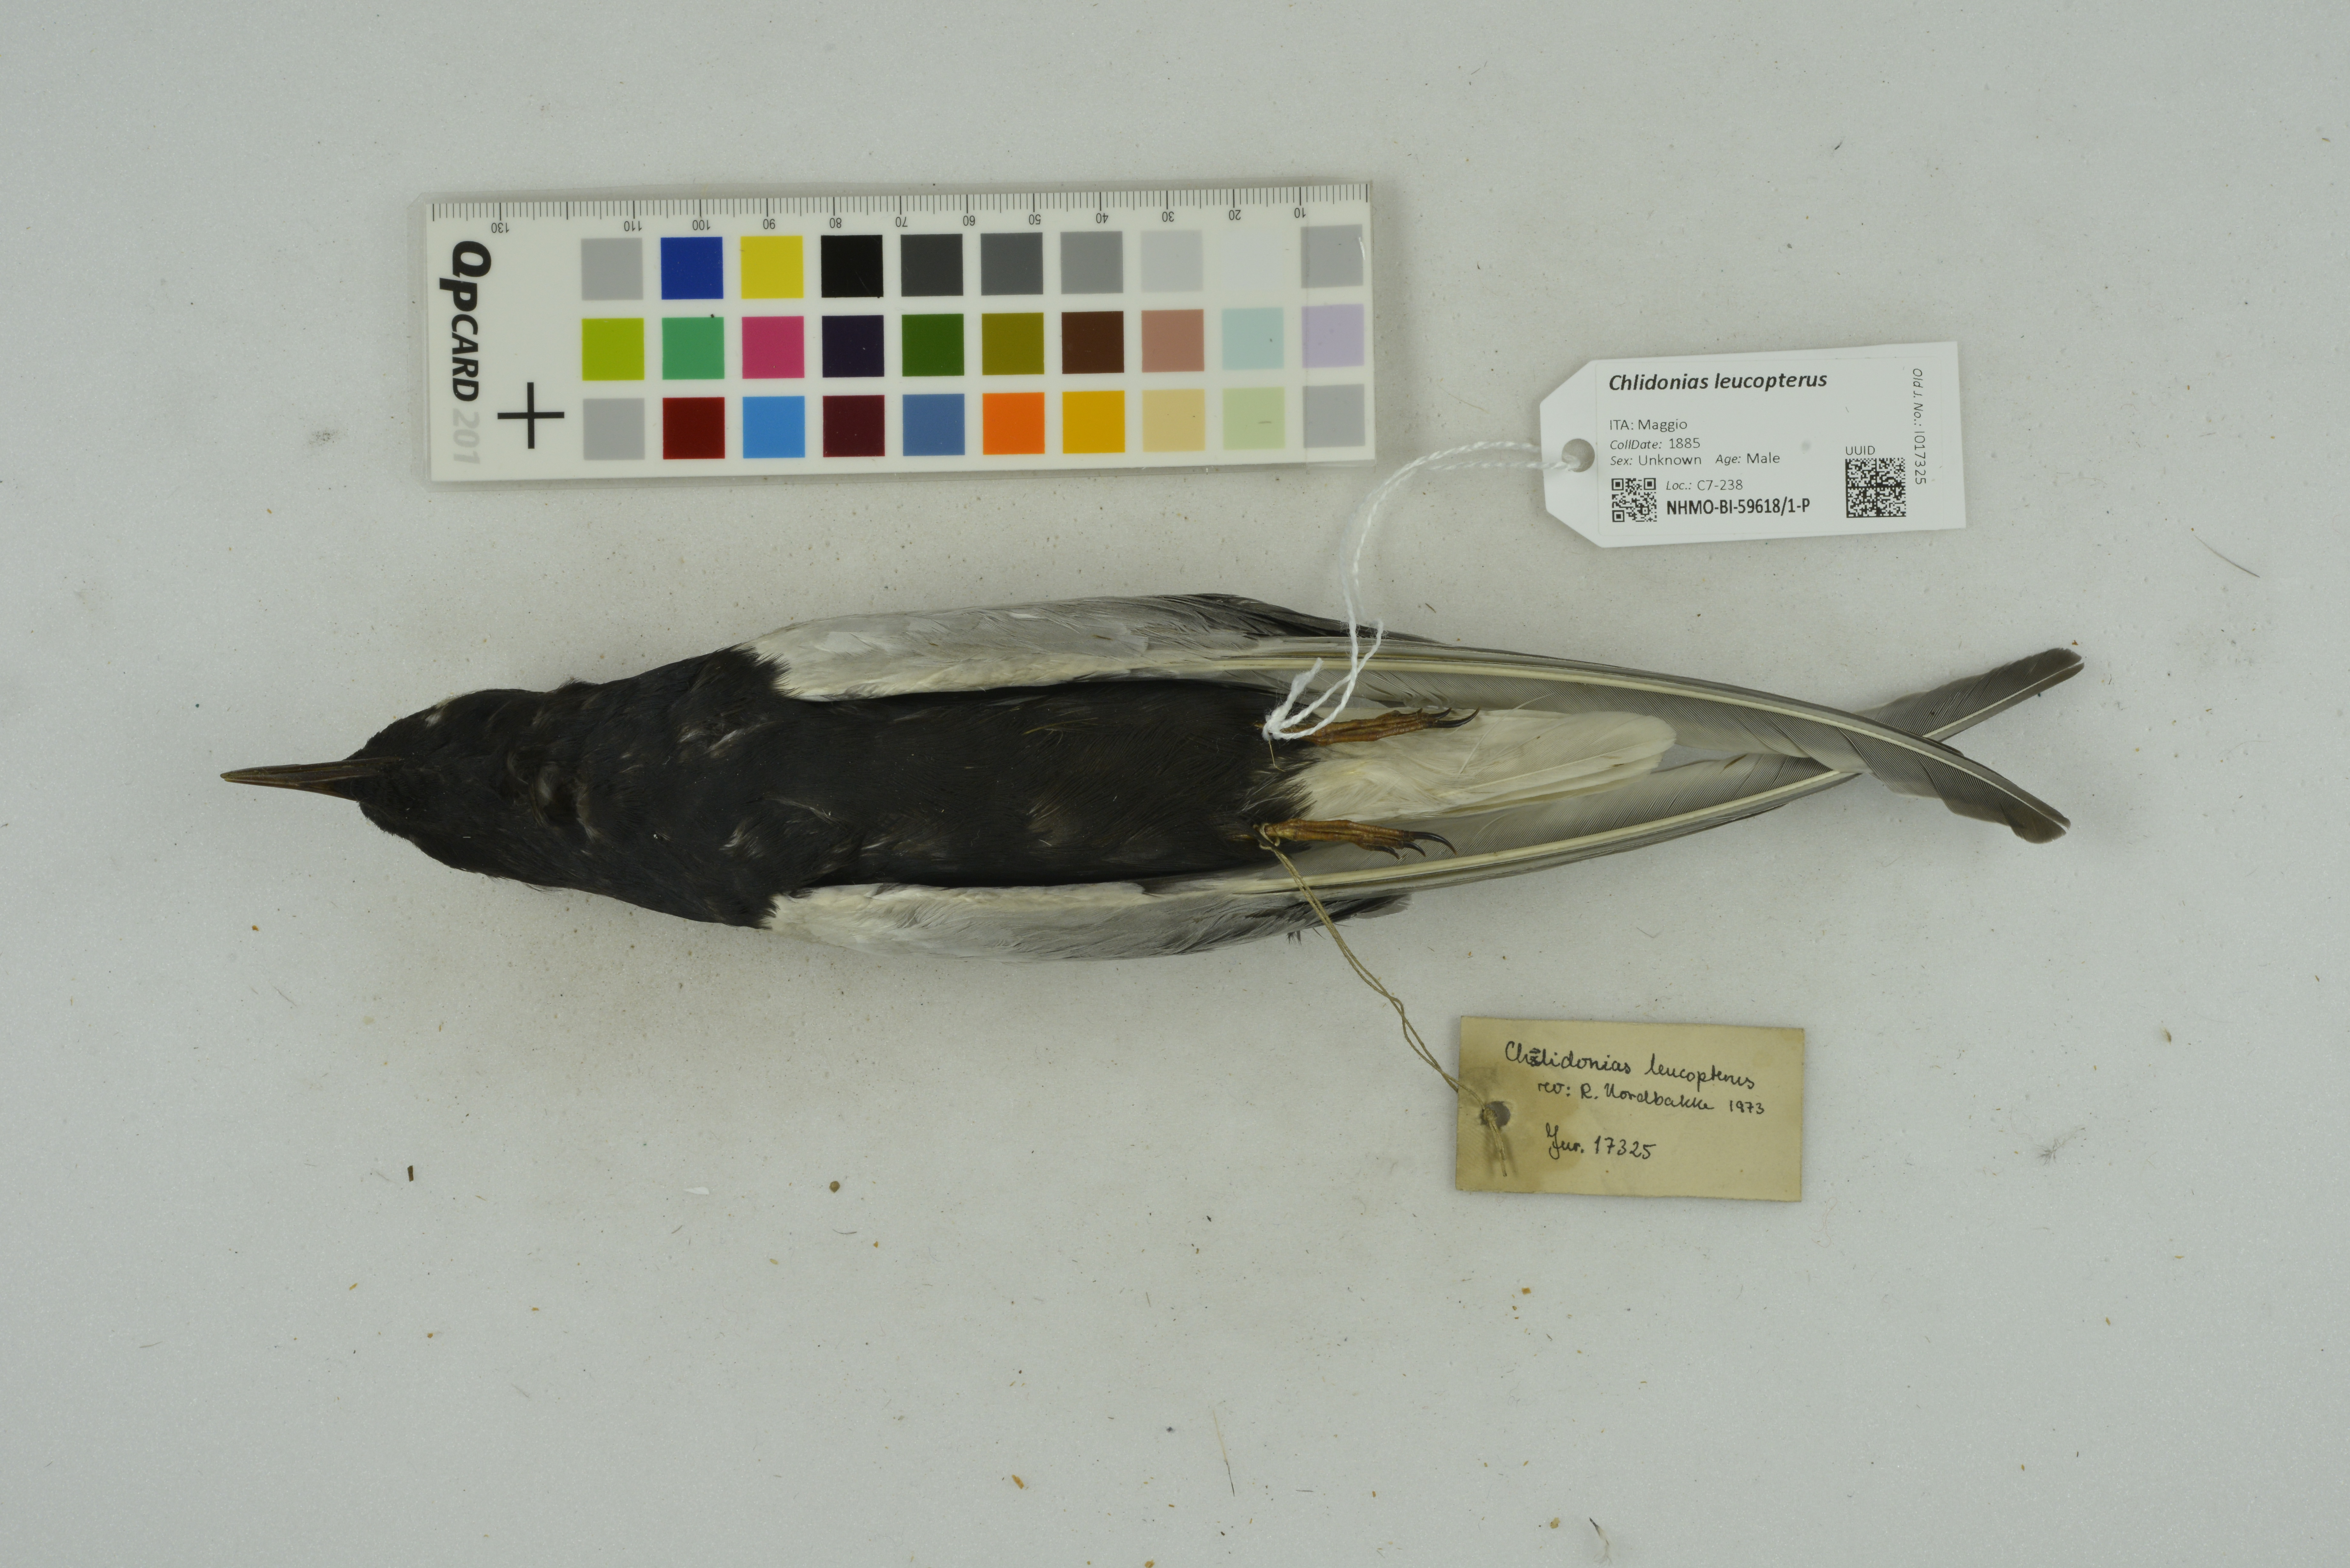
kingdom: Animalia
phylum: Chordata
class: Aves
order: Charadriiformes
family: Laridae
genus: Chlidonias
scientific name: Chlidonias leucopterus
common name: White-winged tern
